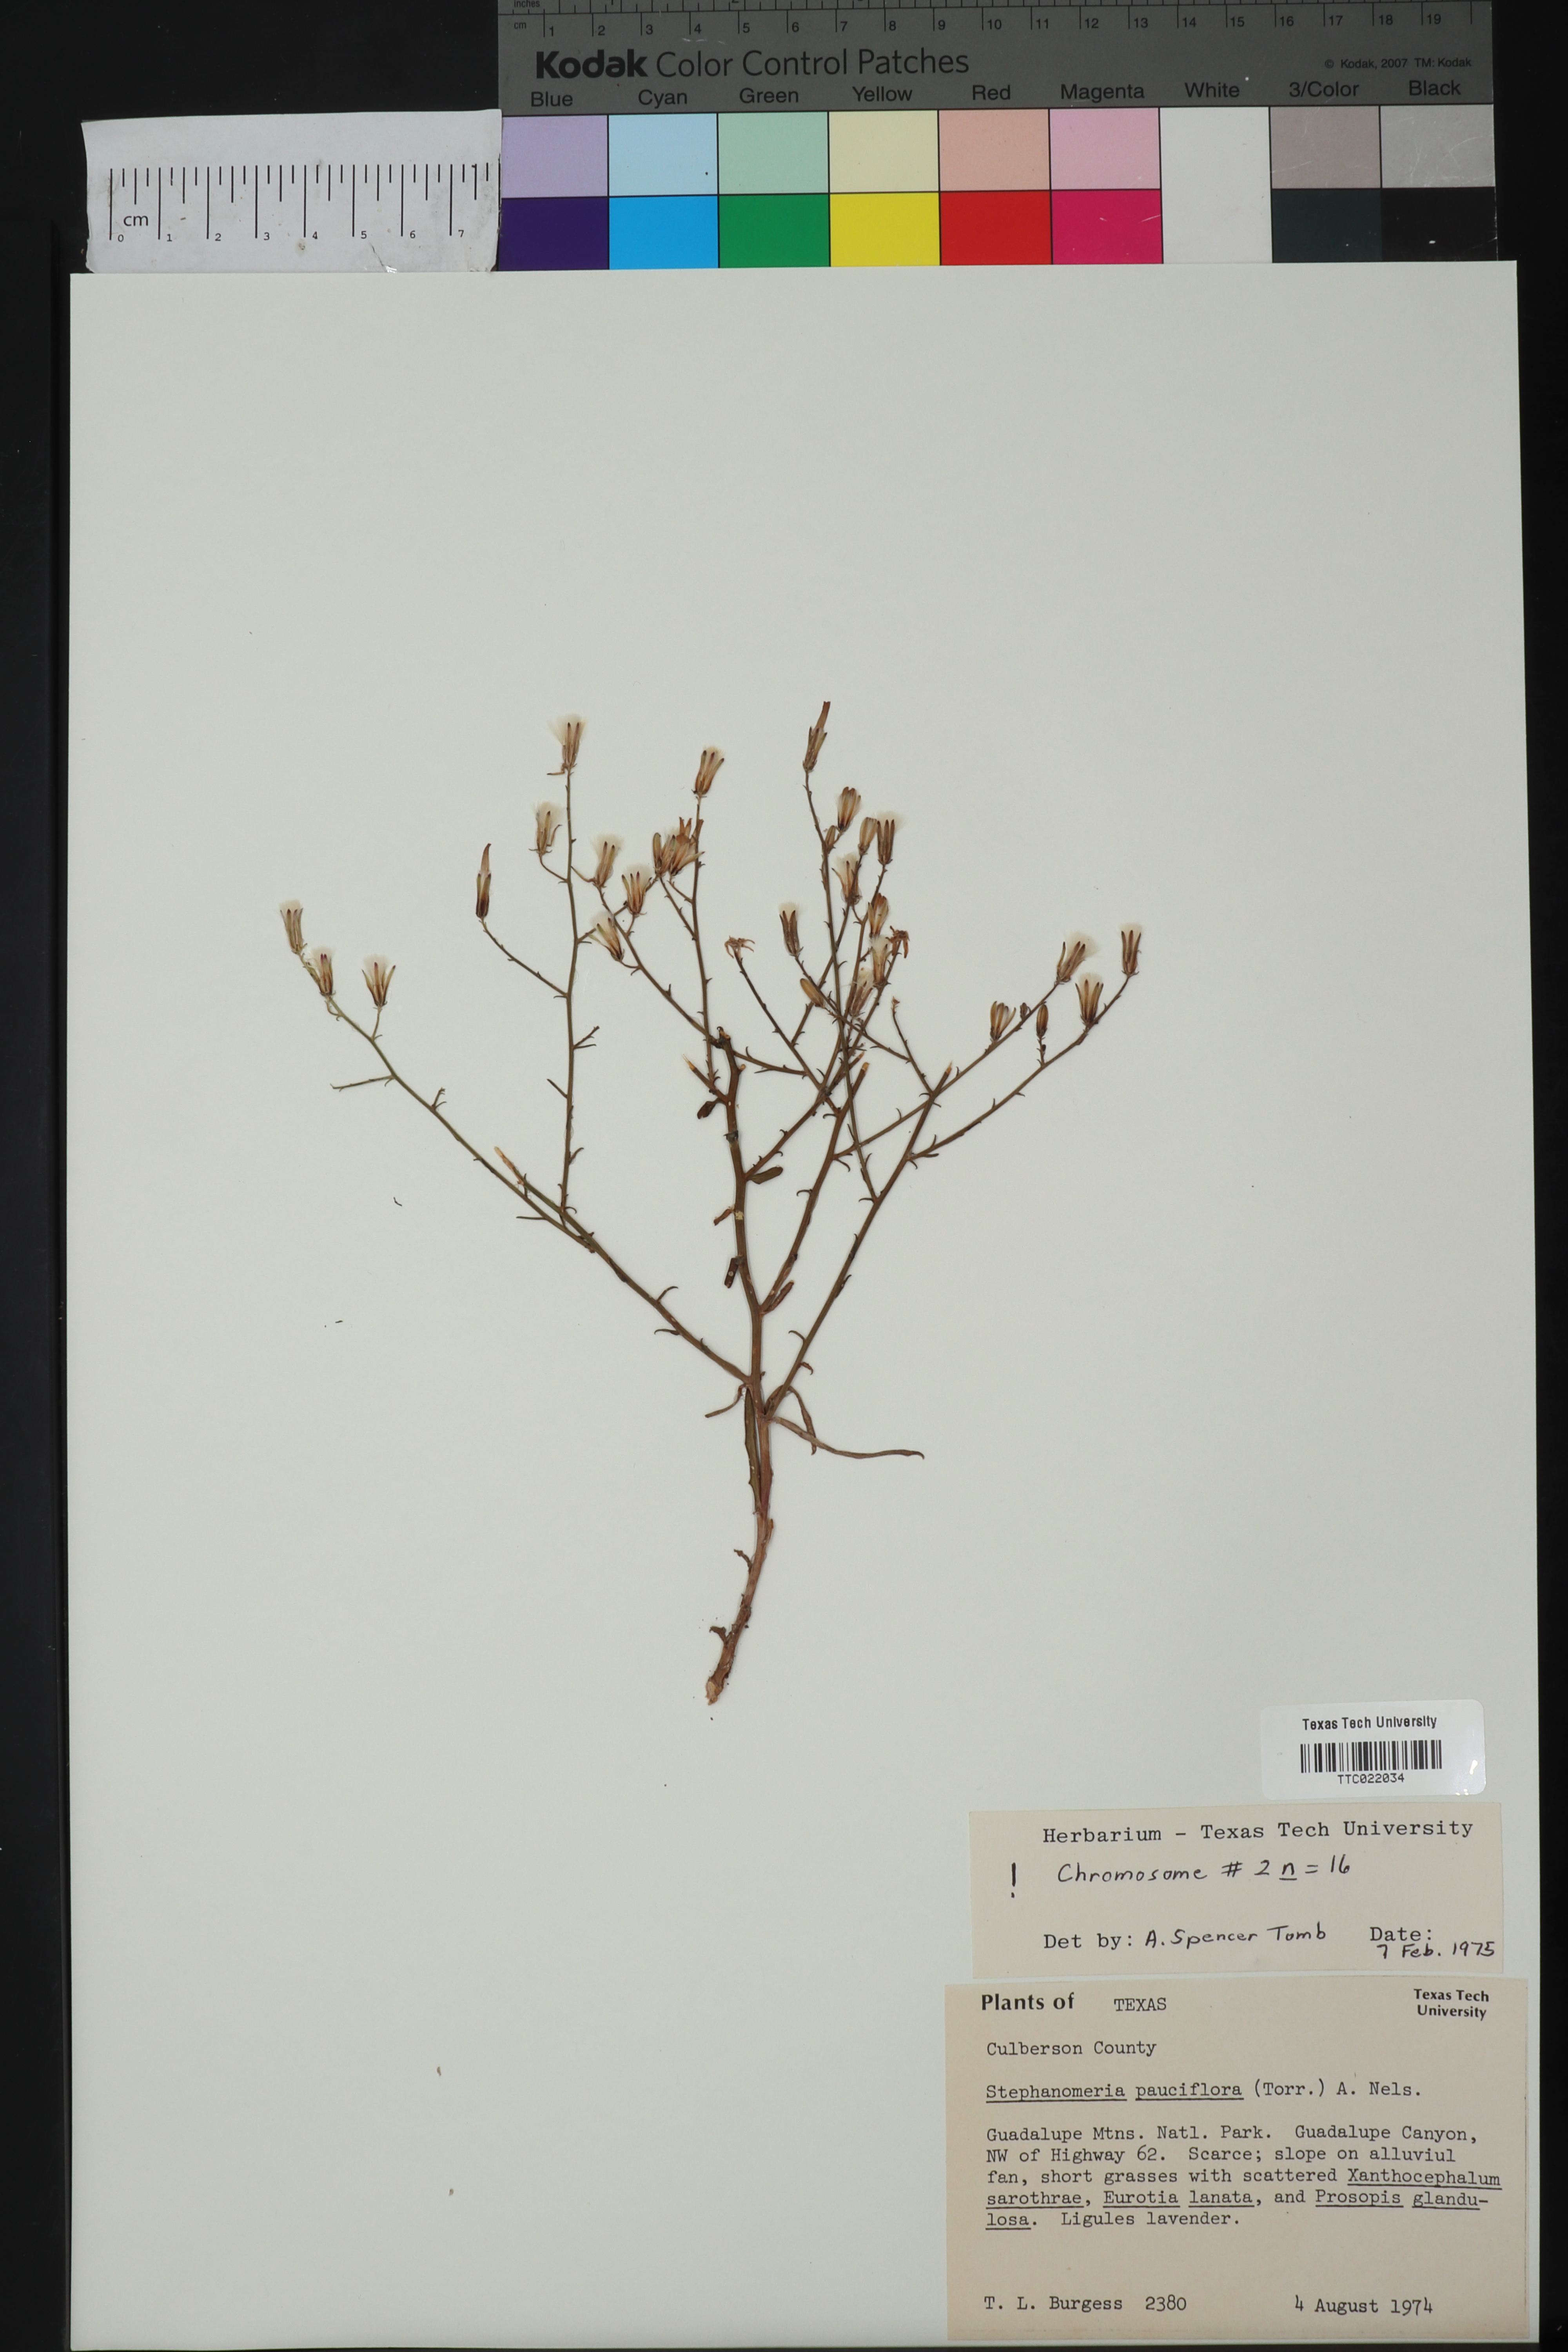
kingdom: Plantae
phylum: Tracheophyta
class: Magnoliopsida
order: Asterales
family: Asteraceae
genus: Stephanomeria
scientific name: Stephanomeria pauciflora
